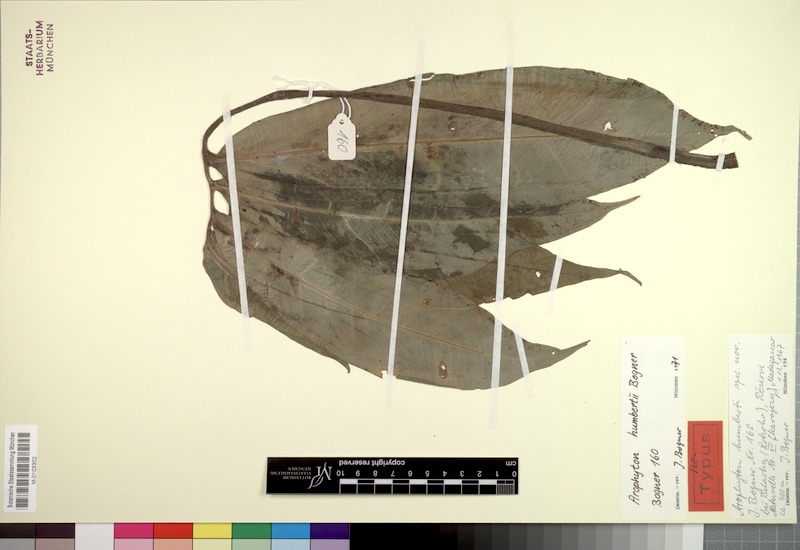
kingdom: Plantae
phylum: Tracheophyta
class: Liliopsida
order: Alismatales
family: Araceae
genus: Arophyton
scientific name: Arophyton humbertii
